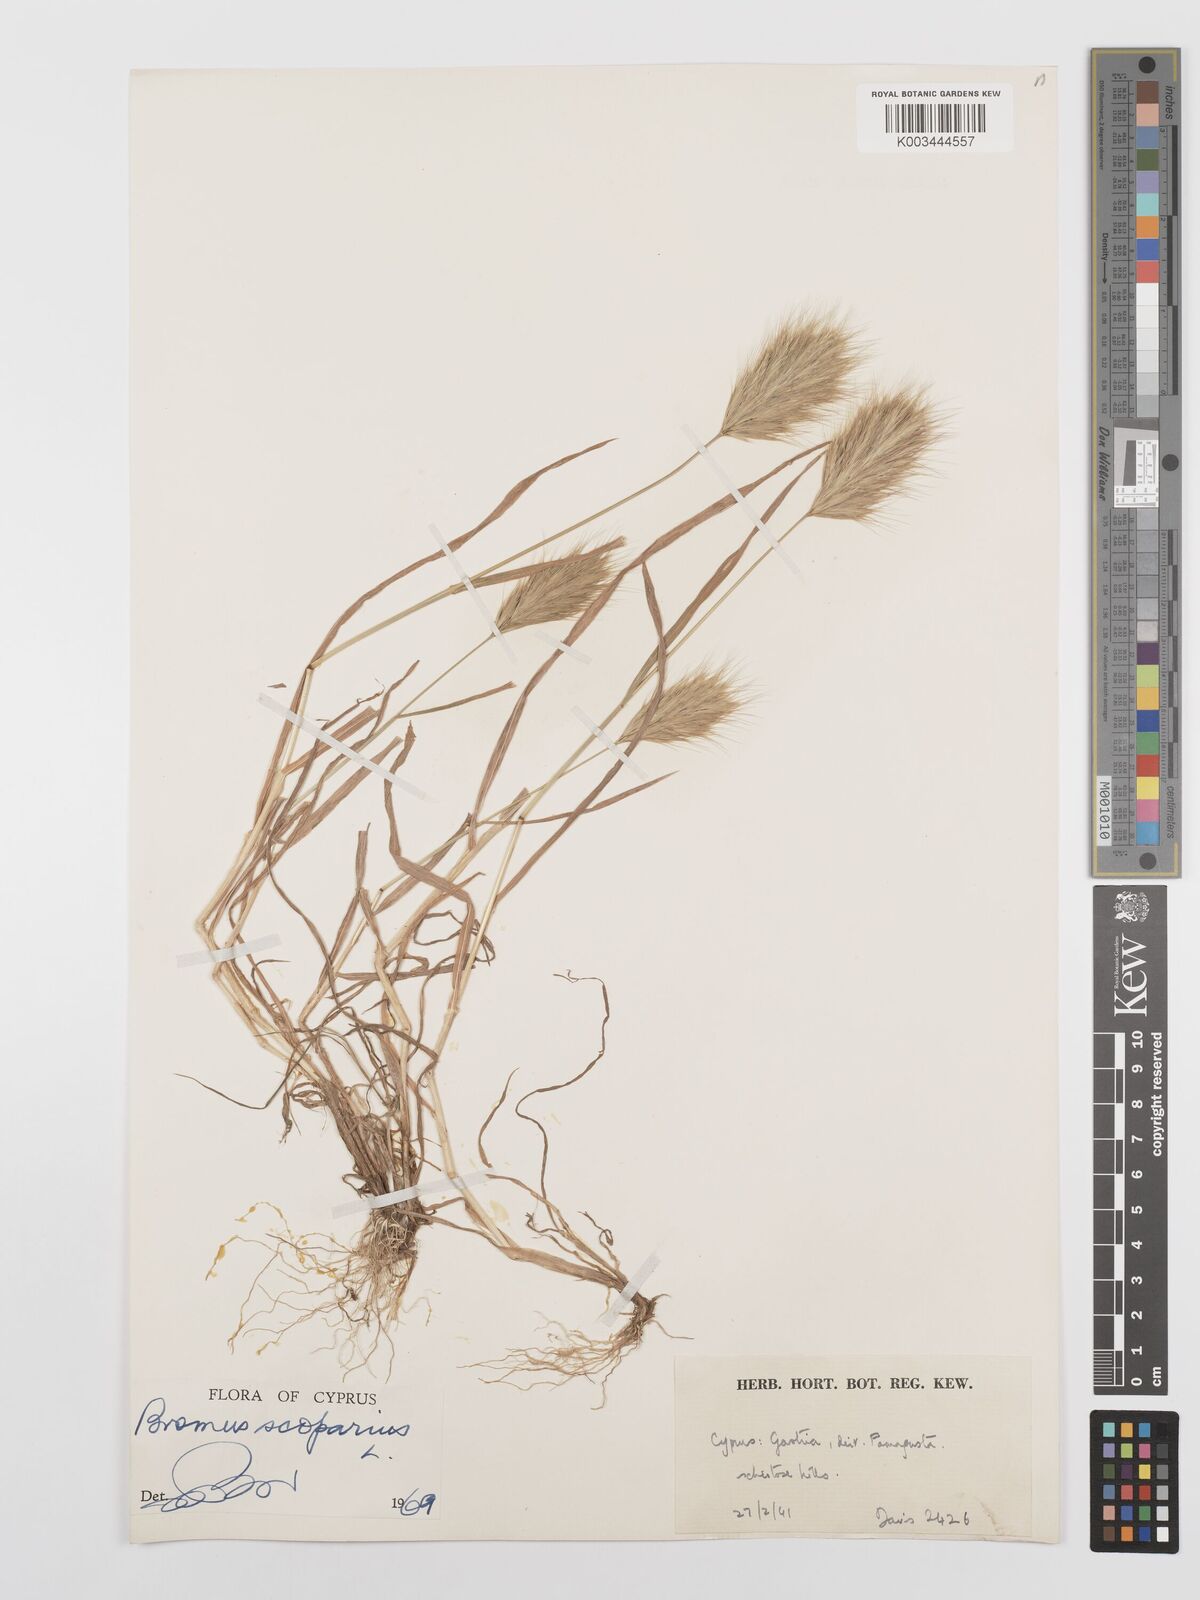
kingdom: Plantae
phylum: Tracheophyta
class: Liliopsida
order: Poales
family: Poaceae
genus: Bromus
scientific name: Bromus scoparius
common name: Broom brome
